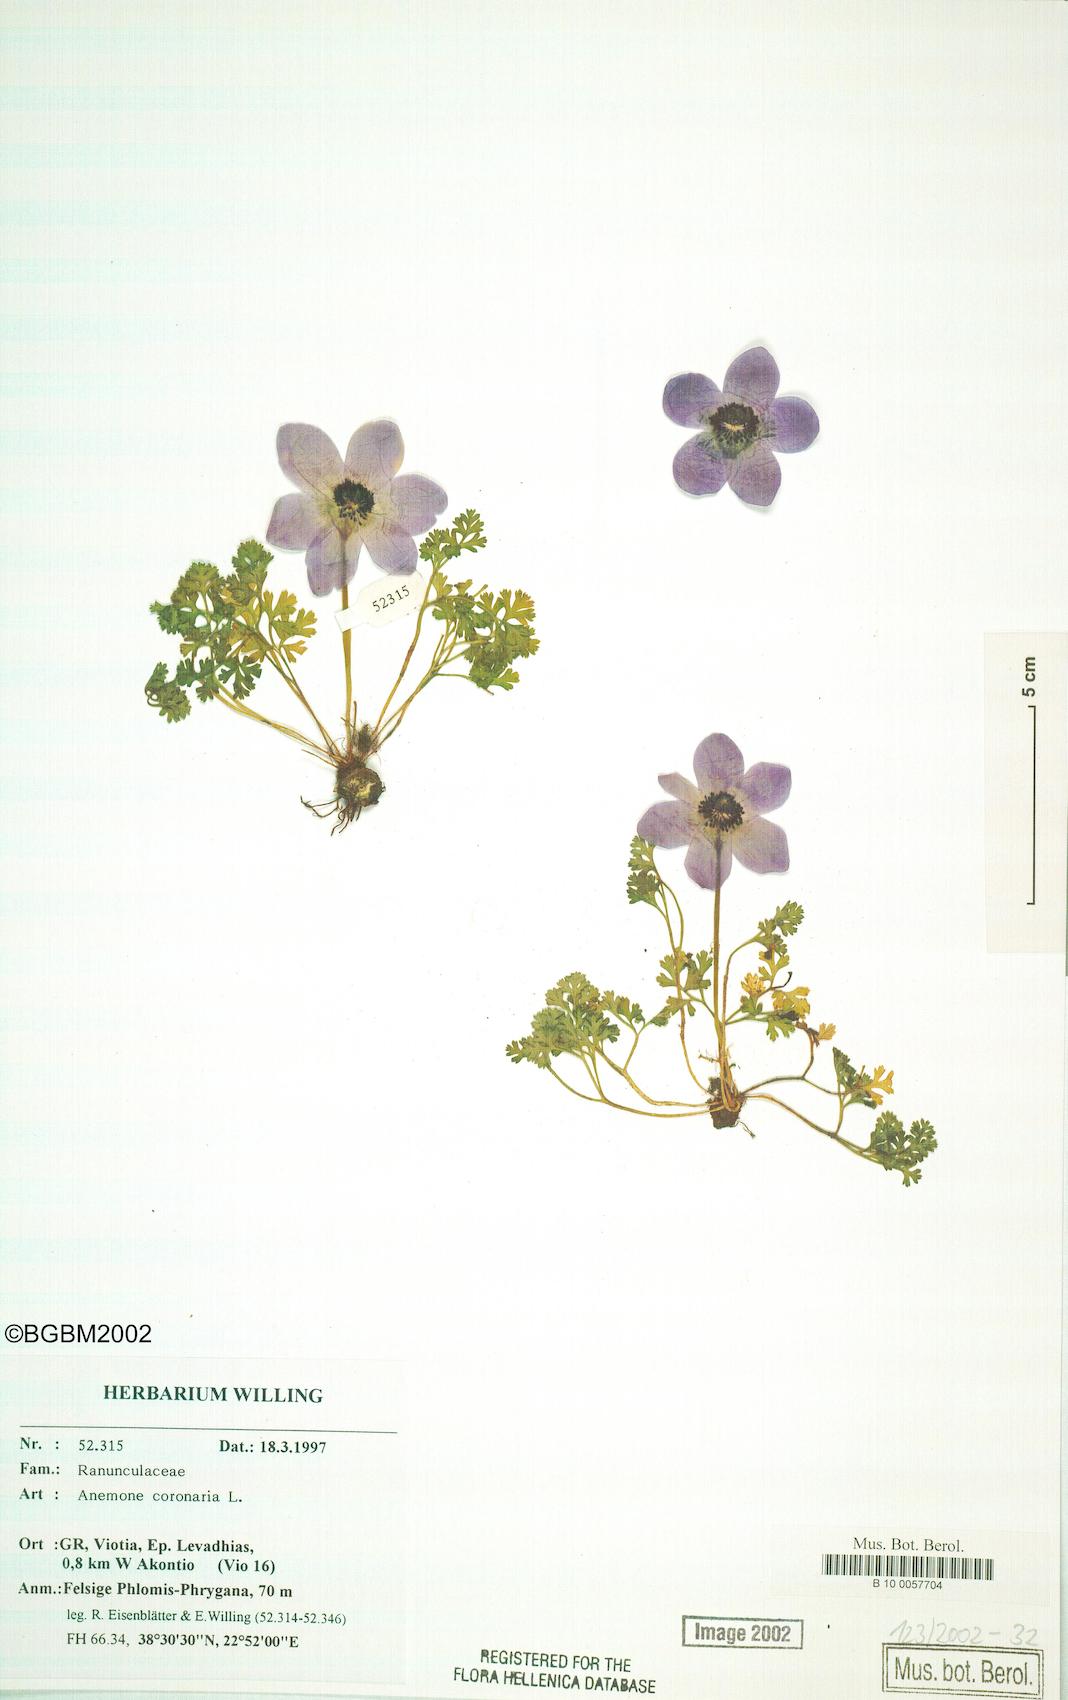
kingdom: Plantae
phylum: Tracheophyta
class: Magnoliopsida
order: Ranunculales
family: Ranunculaceae
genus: Anemone
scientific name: Anemone coronaria
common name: Poppy anemone
